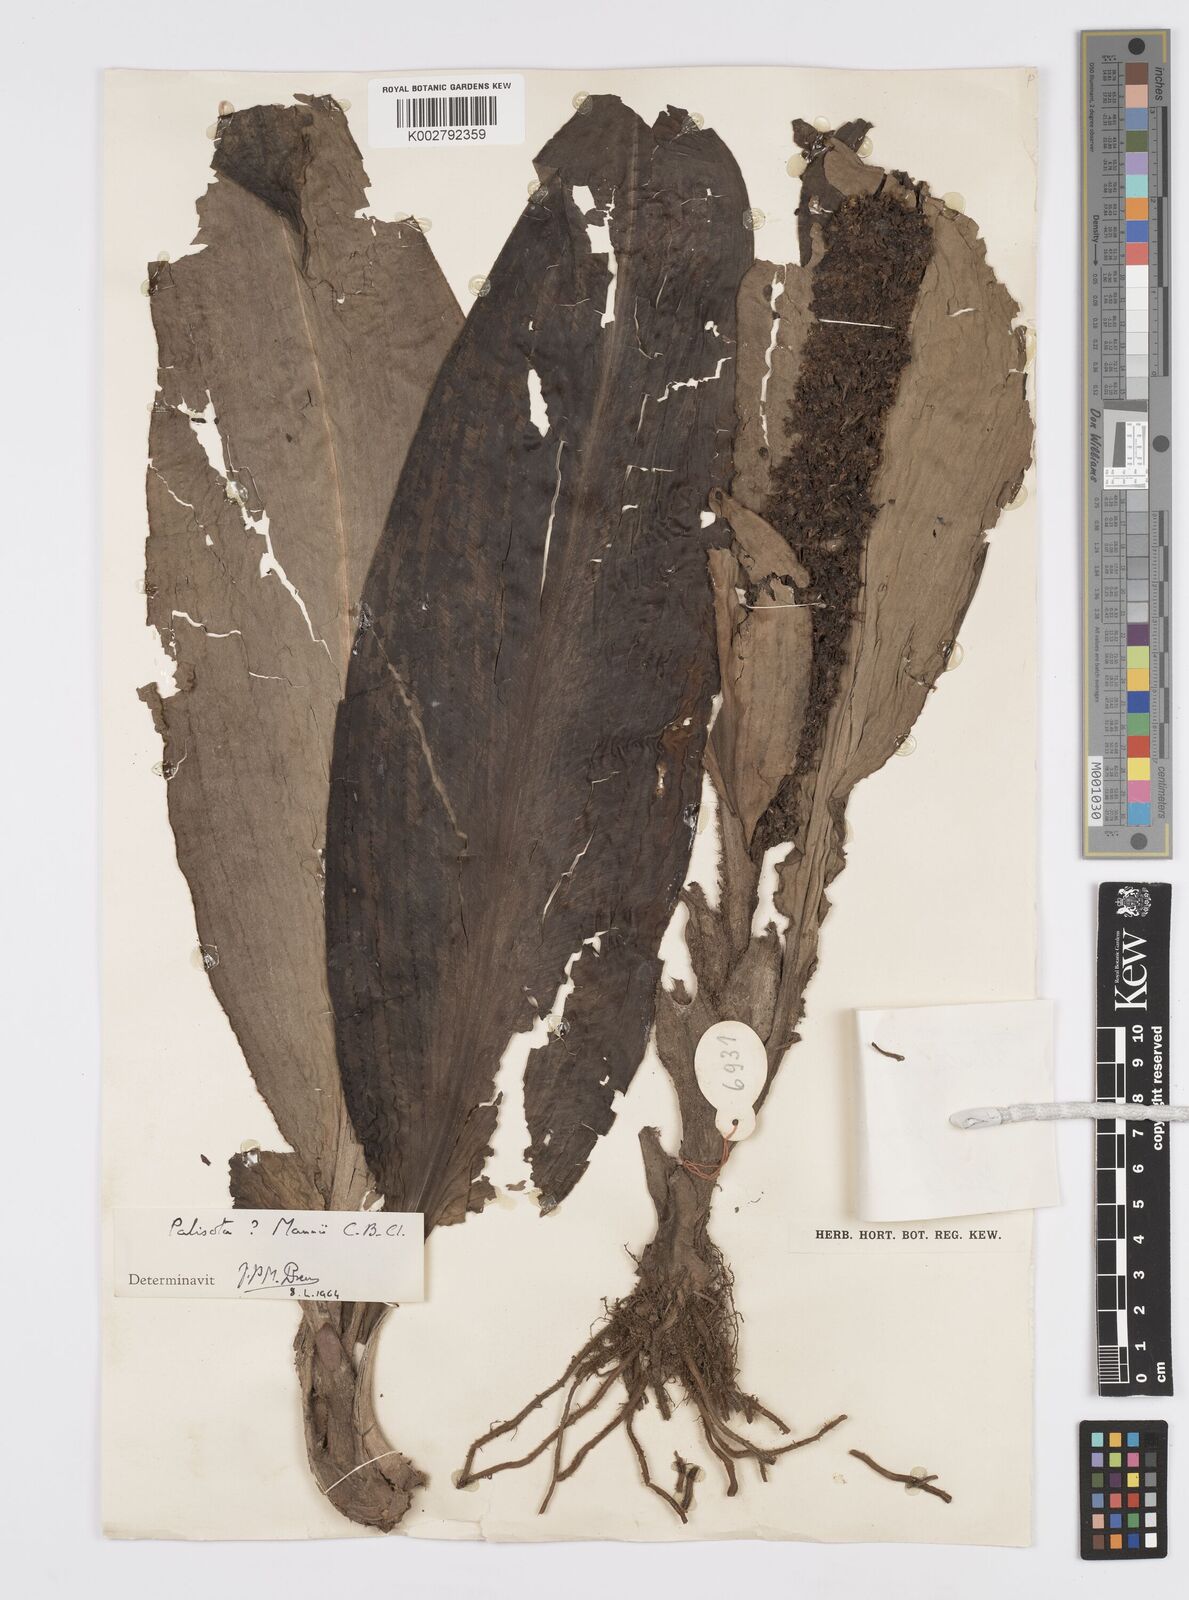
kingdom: Plantae
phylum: Tracheophyta
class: Liliopsida
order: Commelinales
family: Commelinaceae
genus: Palisota
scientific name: Palisota mannii
